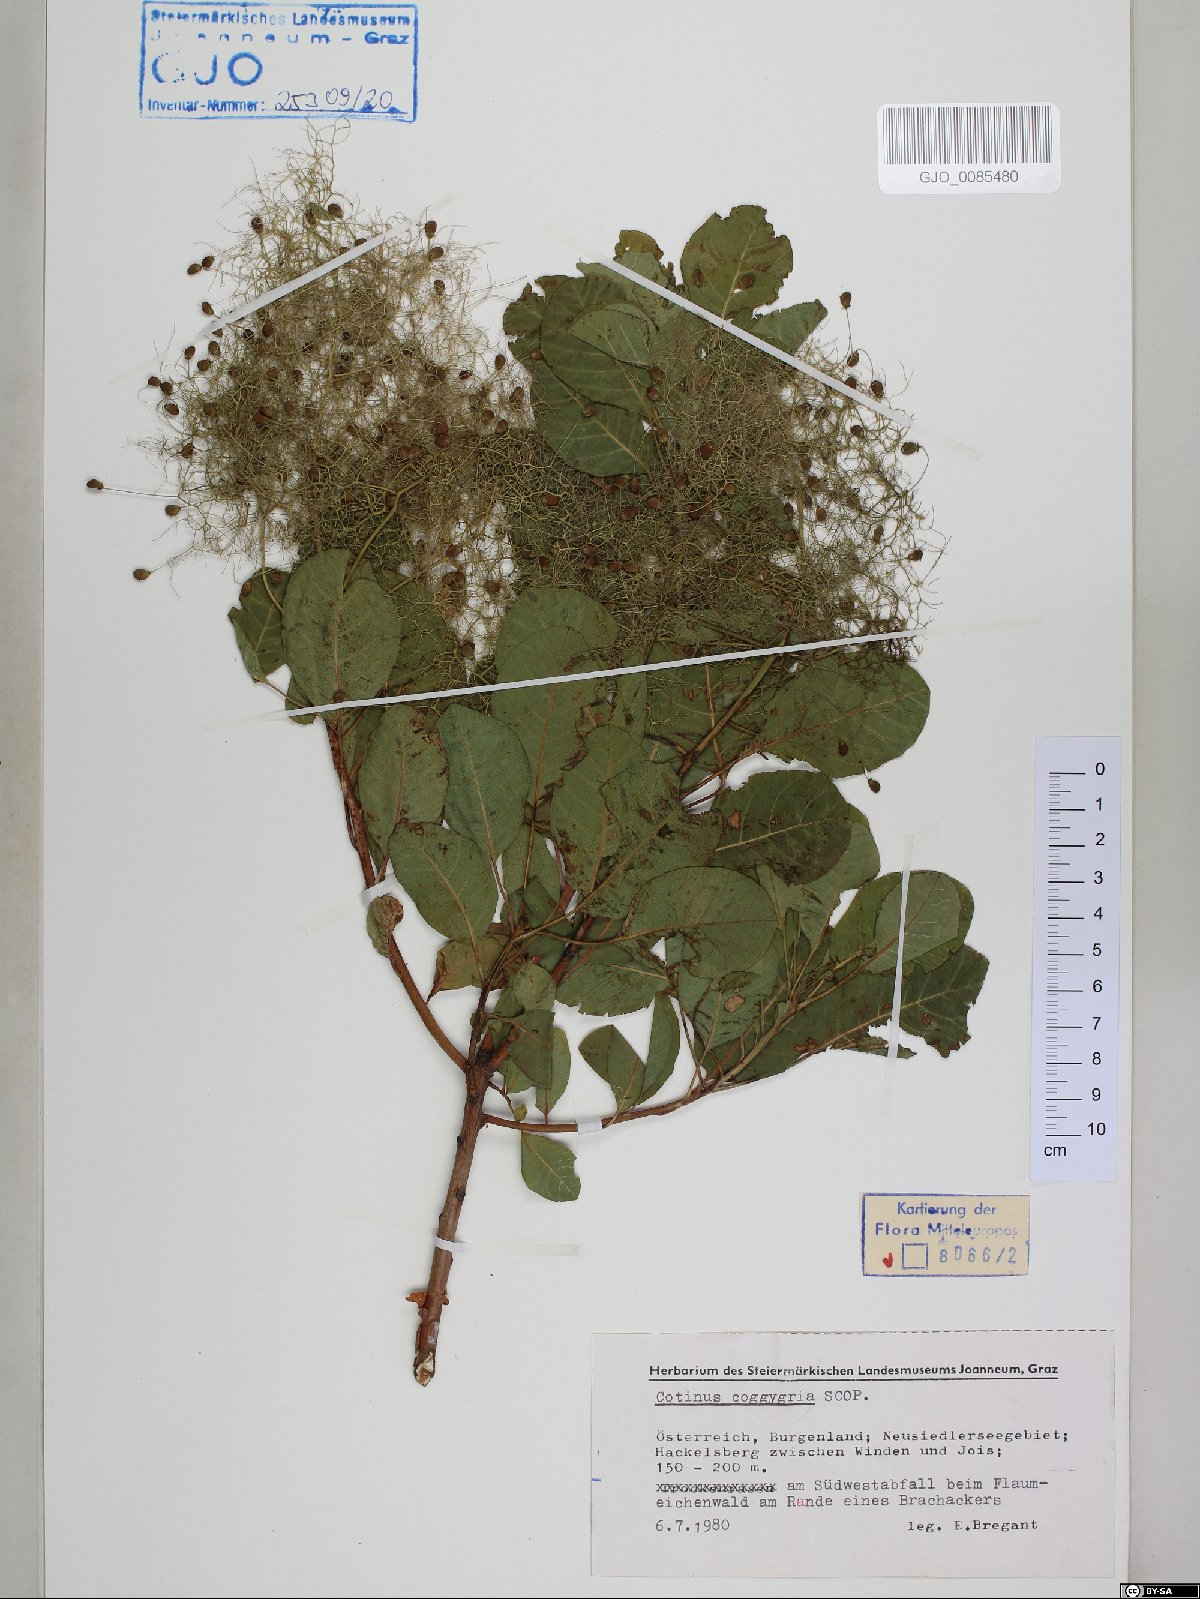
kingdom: Plantae
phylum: Tracheophyta
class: Magnoliopsida
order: Sapindales
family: Anacardiaceae
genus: Cotinus
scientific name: Cotinus coggygria
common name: Smoke-tree
